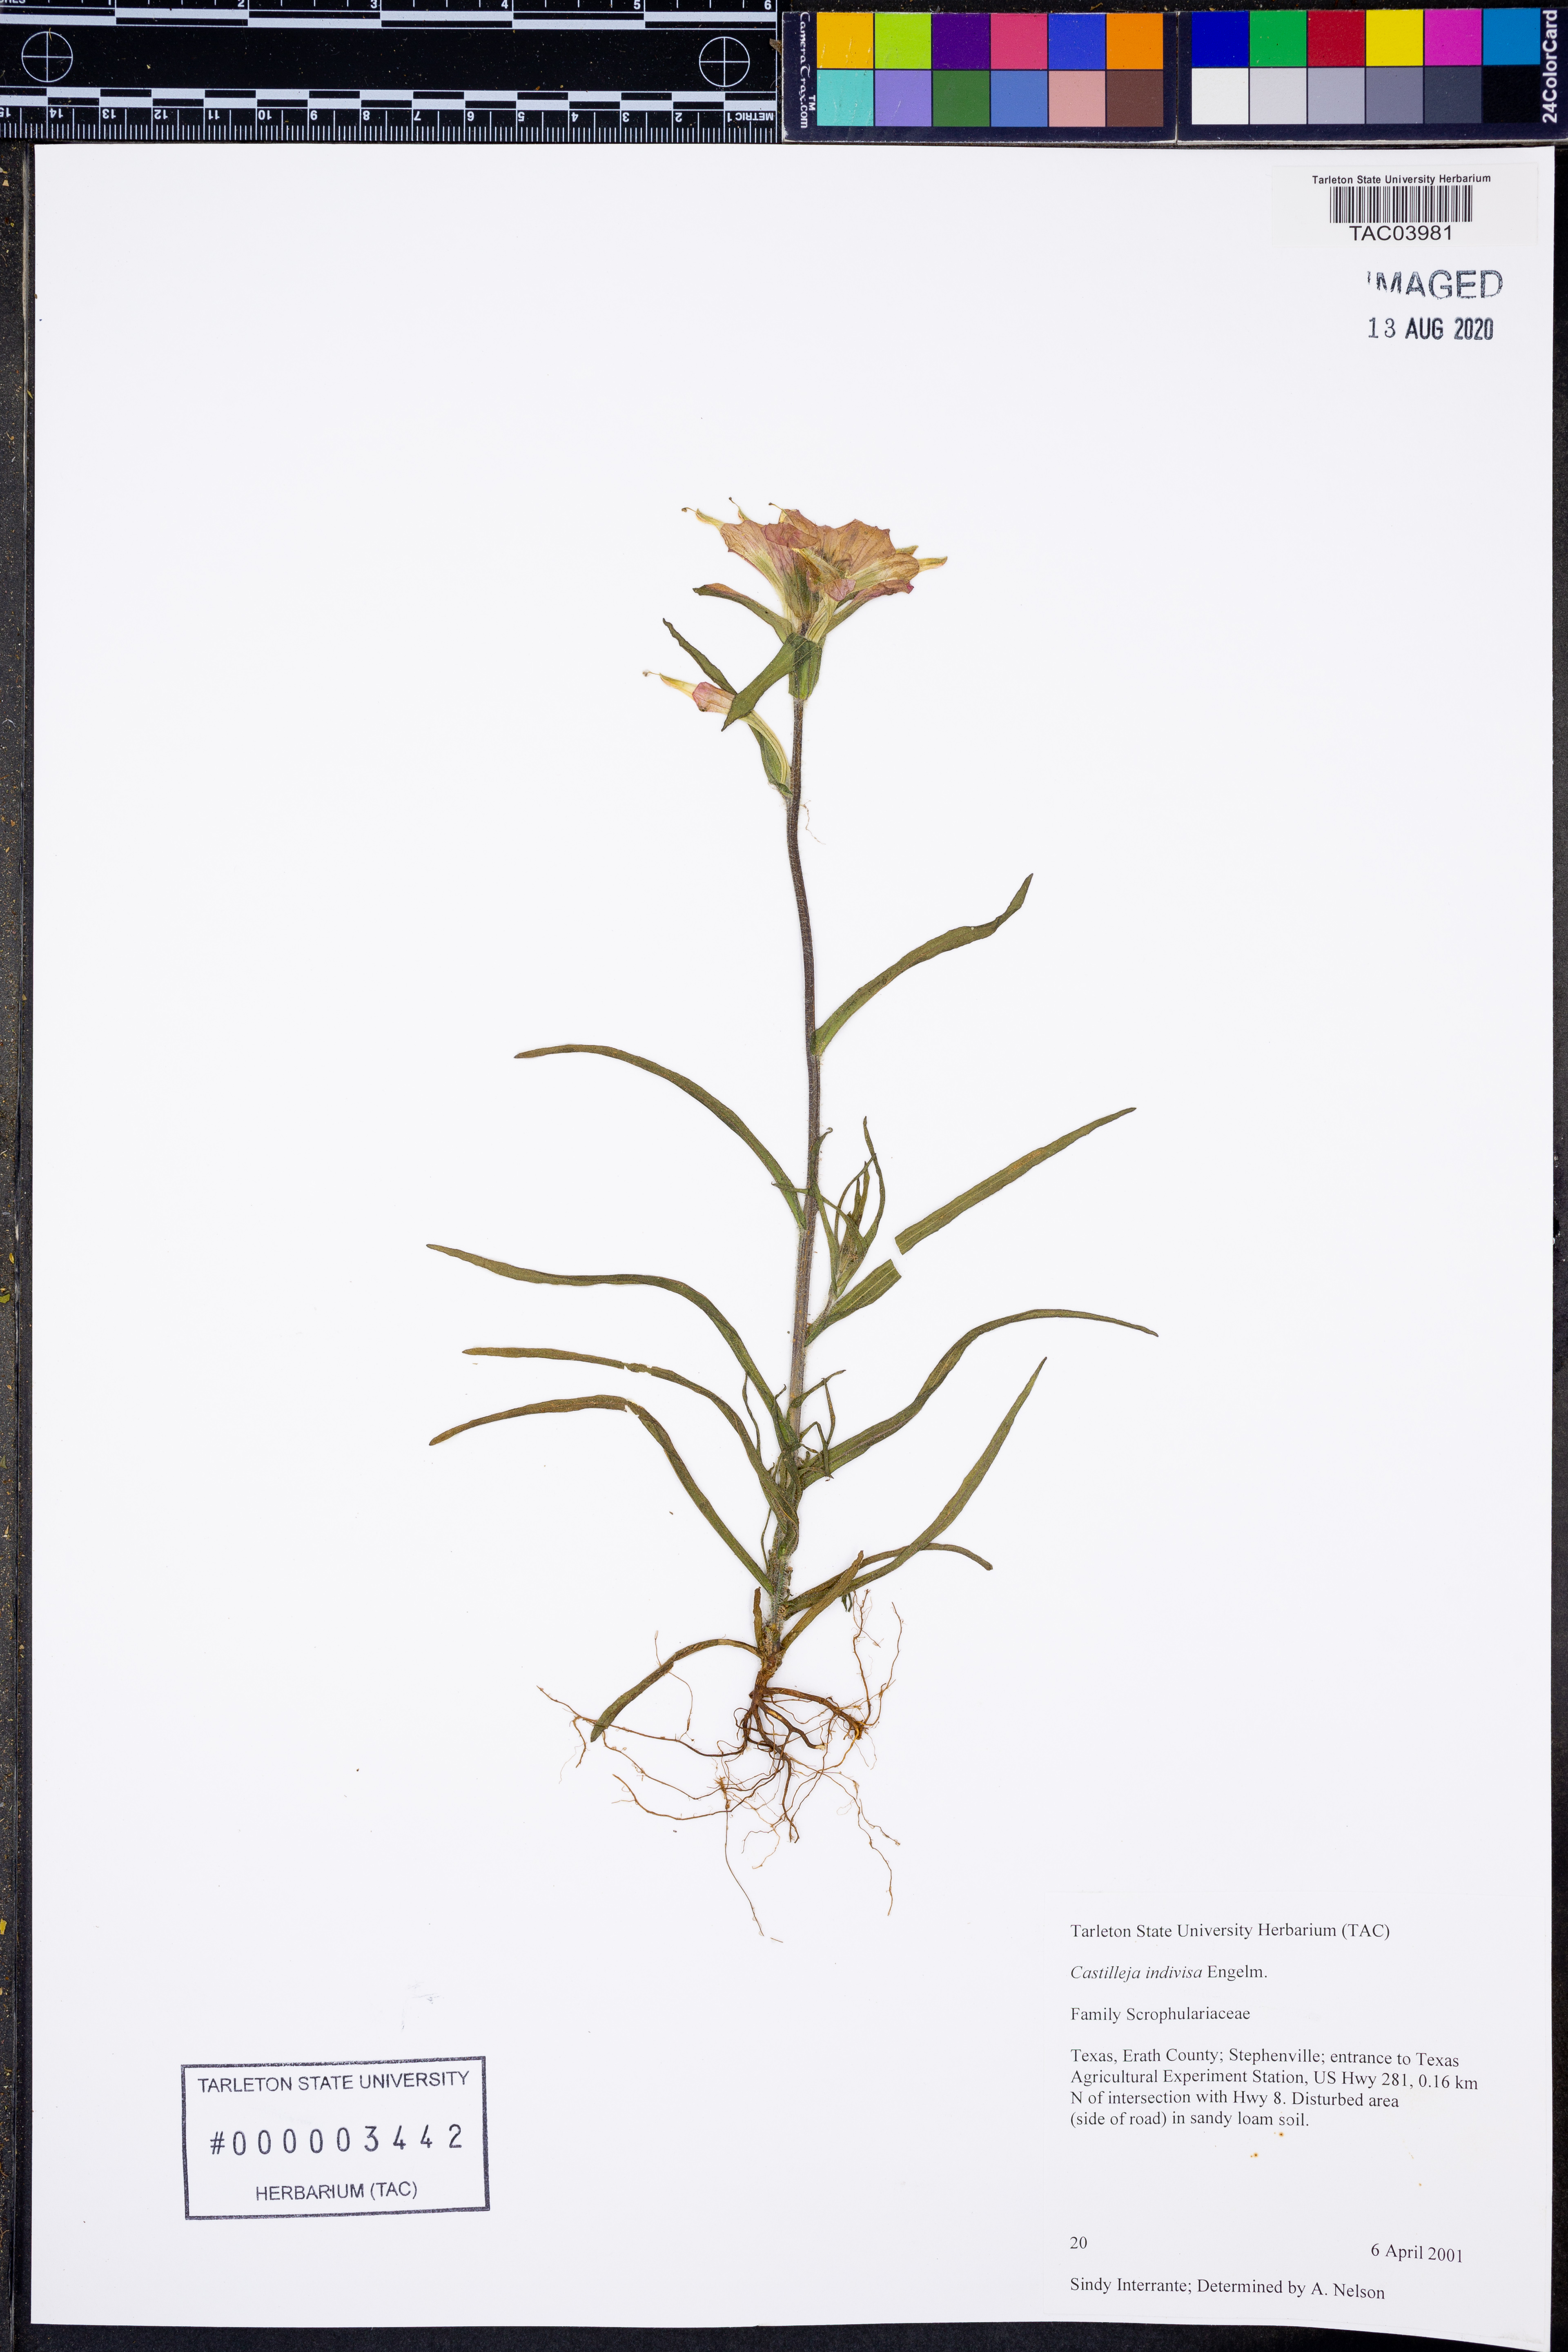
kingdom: Plantae
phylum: Tracheophyta
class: Magnoliopsida
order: Lamiales
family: Orobanchaceae
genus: Castilleja
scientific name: Castilleja indivisa
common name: Texas paintbrush
